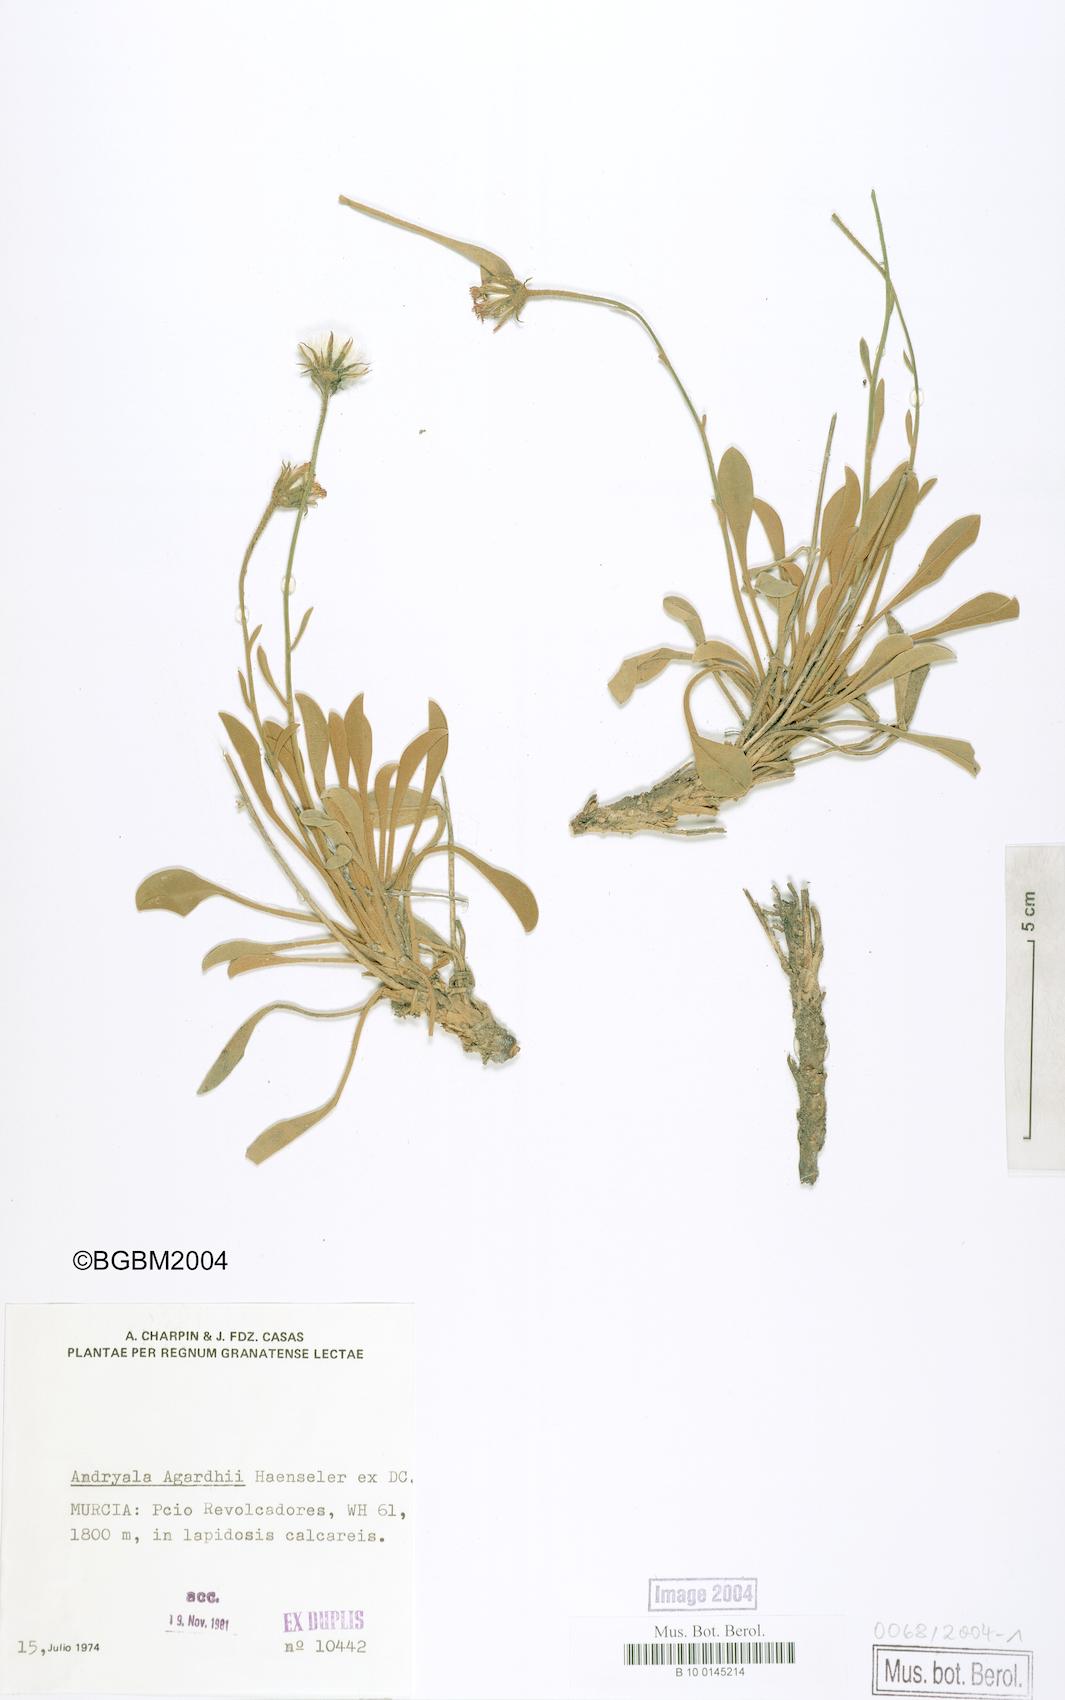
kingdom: Plantae
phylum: Tracheophyta
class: Magnoliopsida
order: Asterales
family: Asteraceae
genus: Andryala
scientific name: Andryala agardhii
